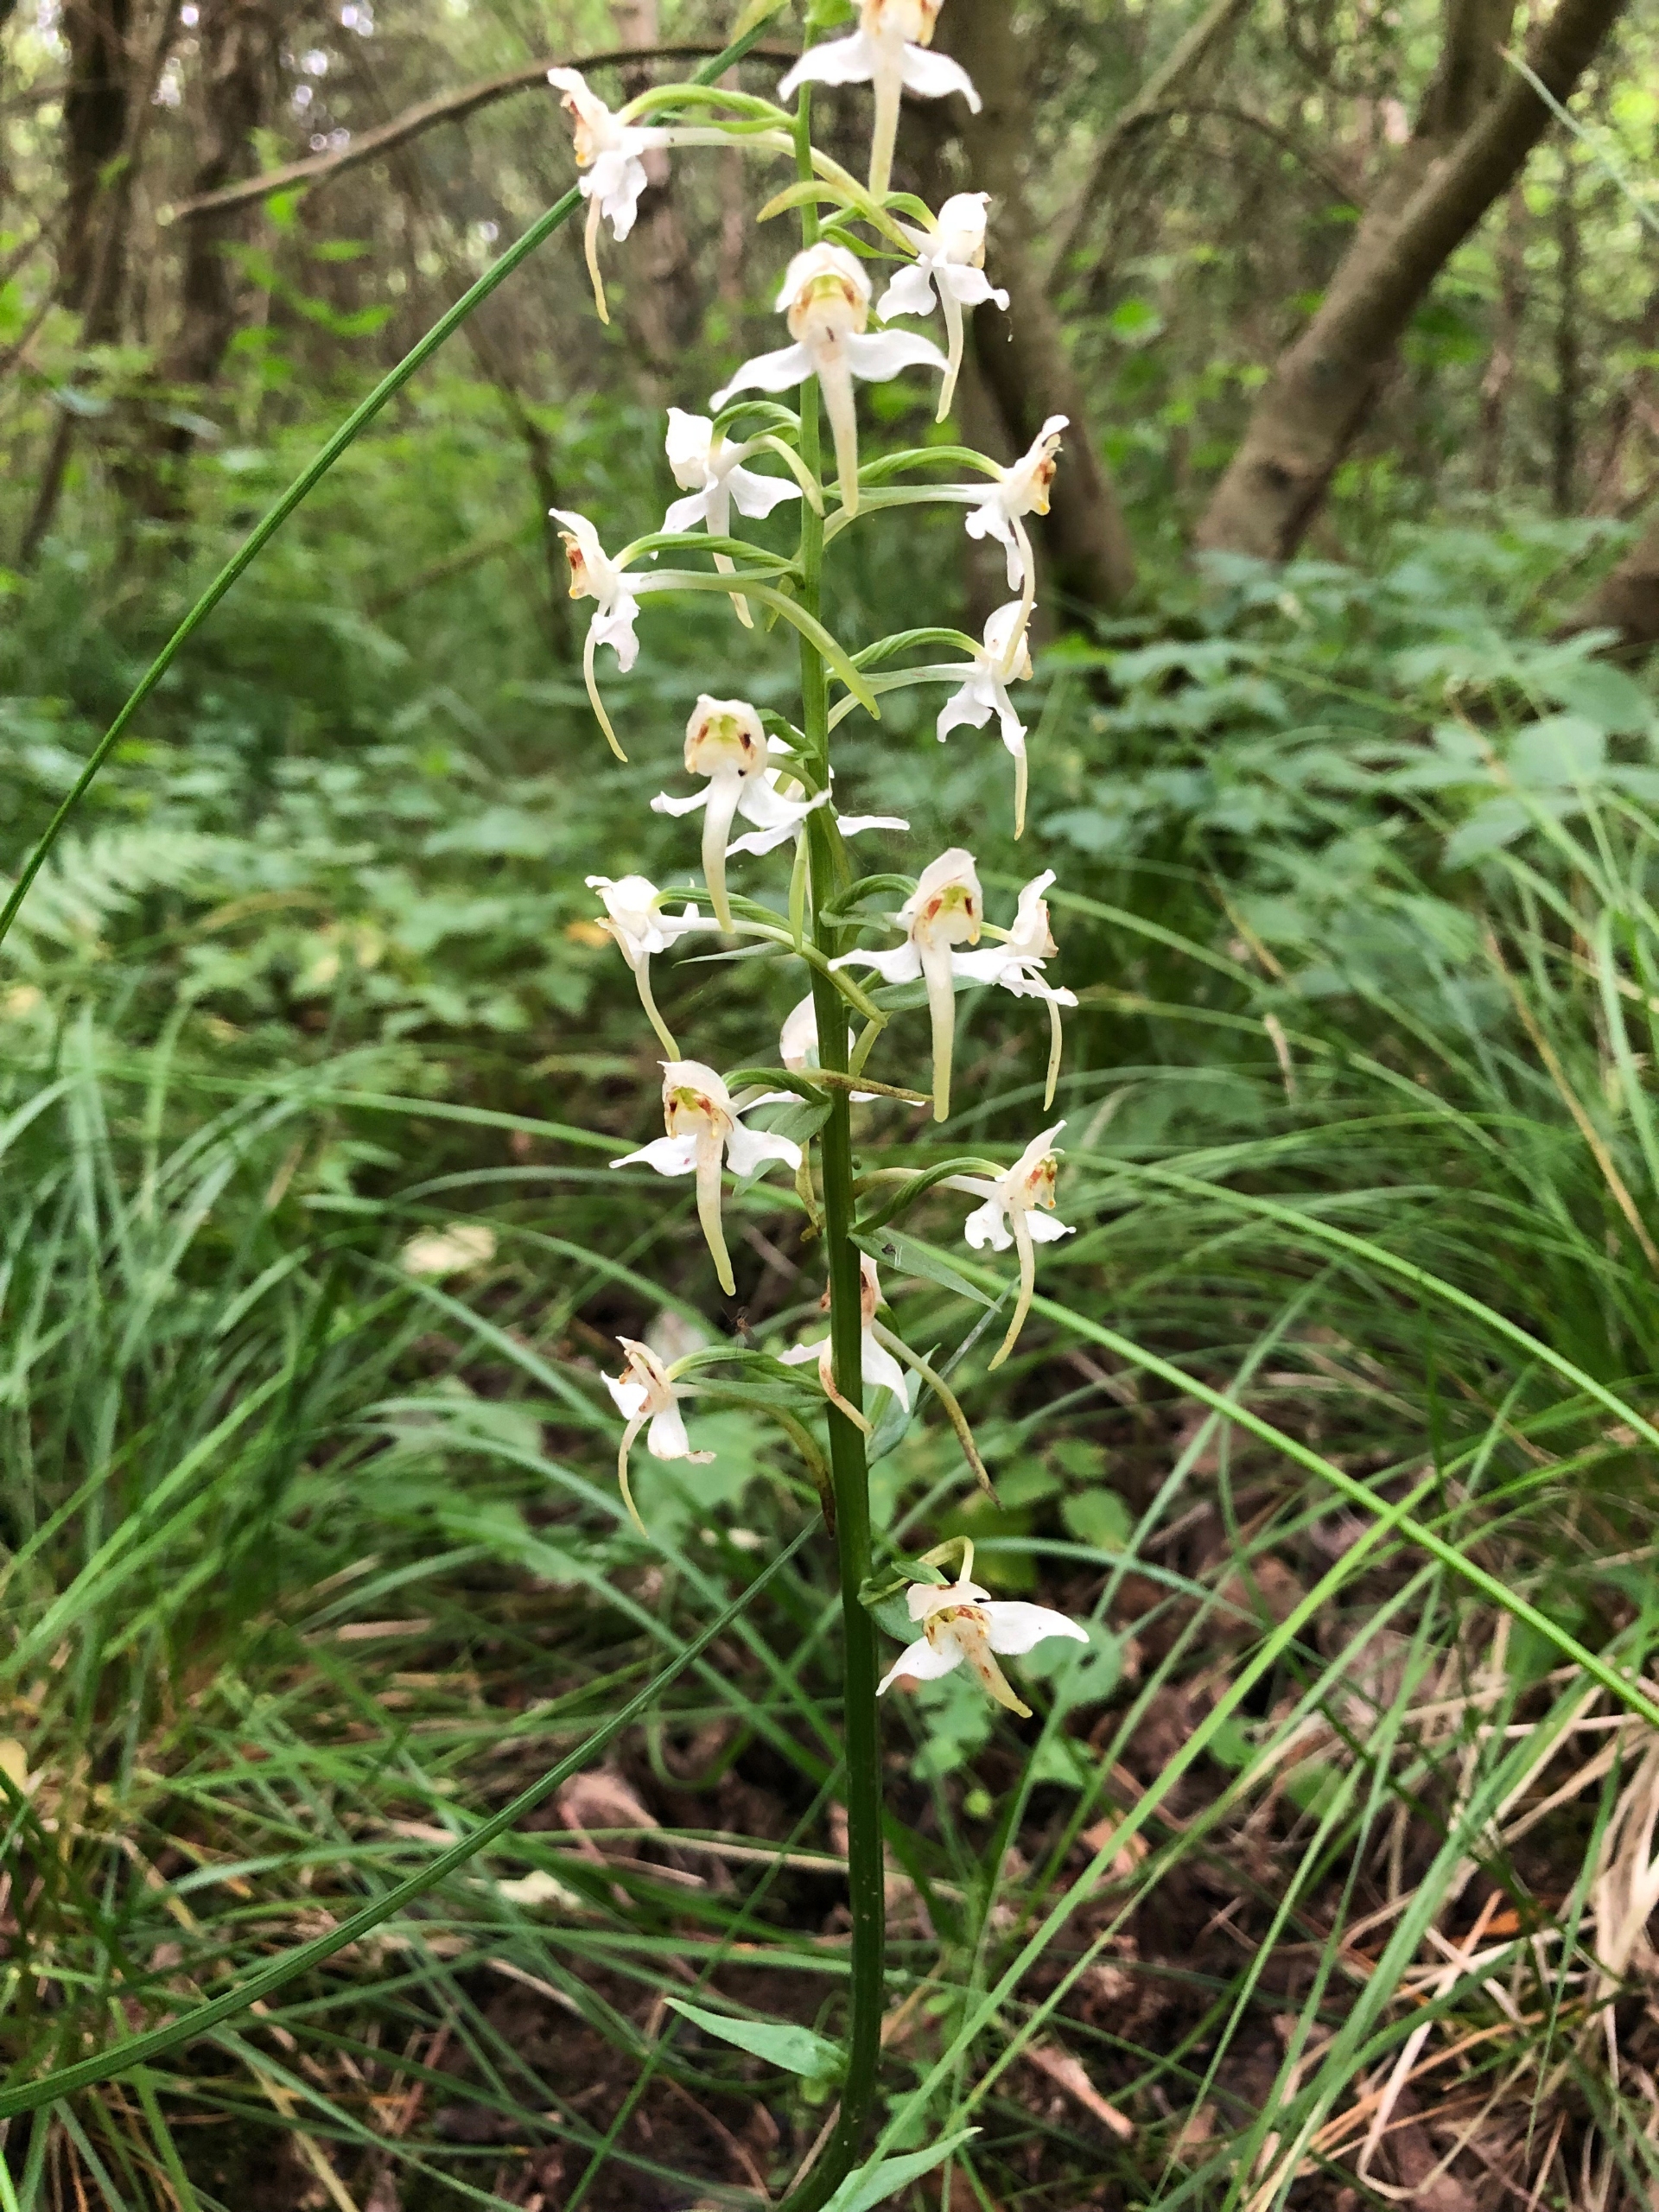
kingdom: Plantae
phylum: Tracheophyta
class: Liliopsida
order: Asparagales
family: Orchidaceae
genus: Platanthera
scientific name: Platanthera chlorantha
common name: Skov-gøgelilje
